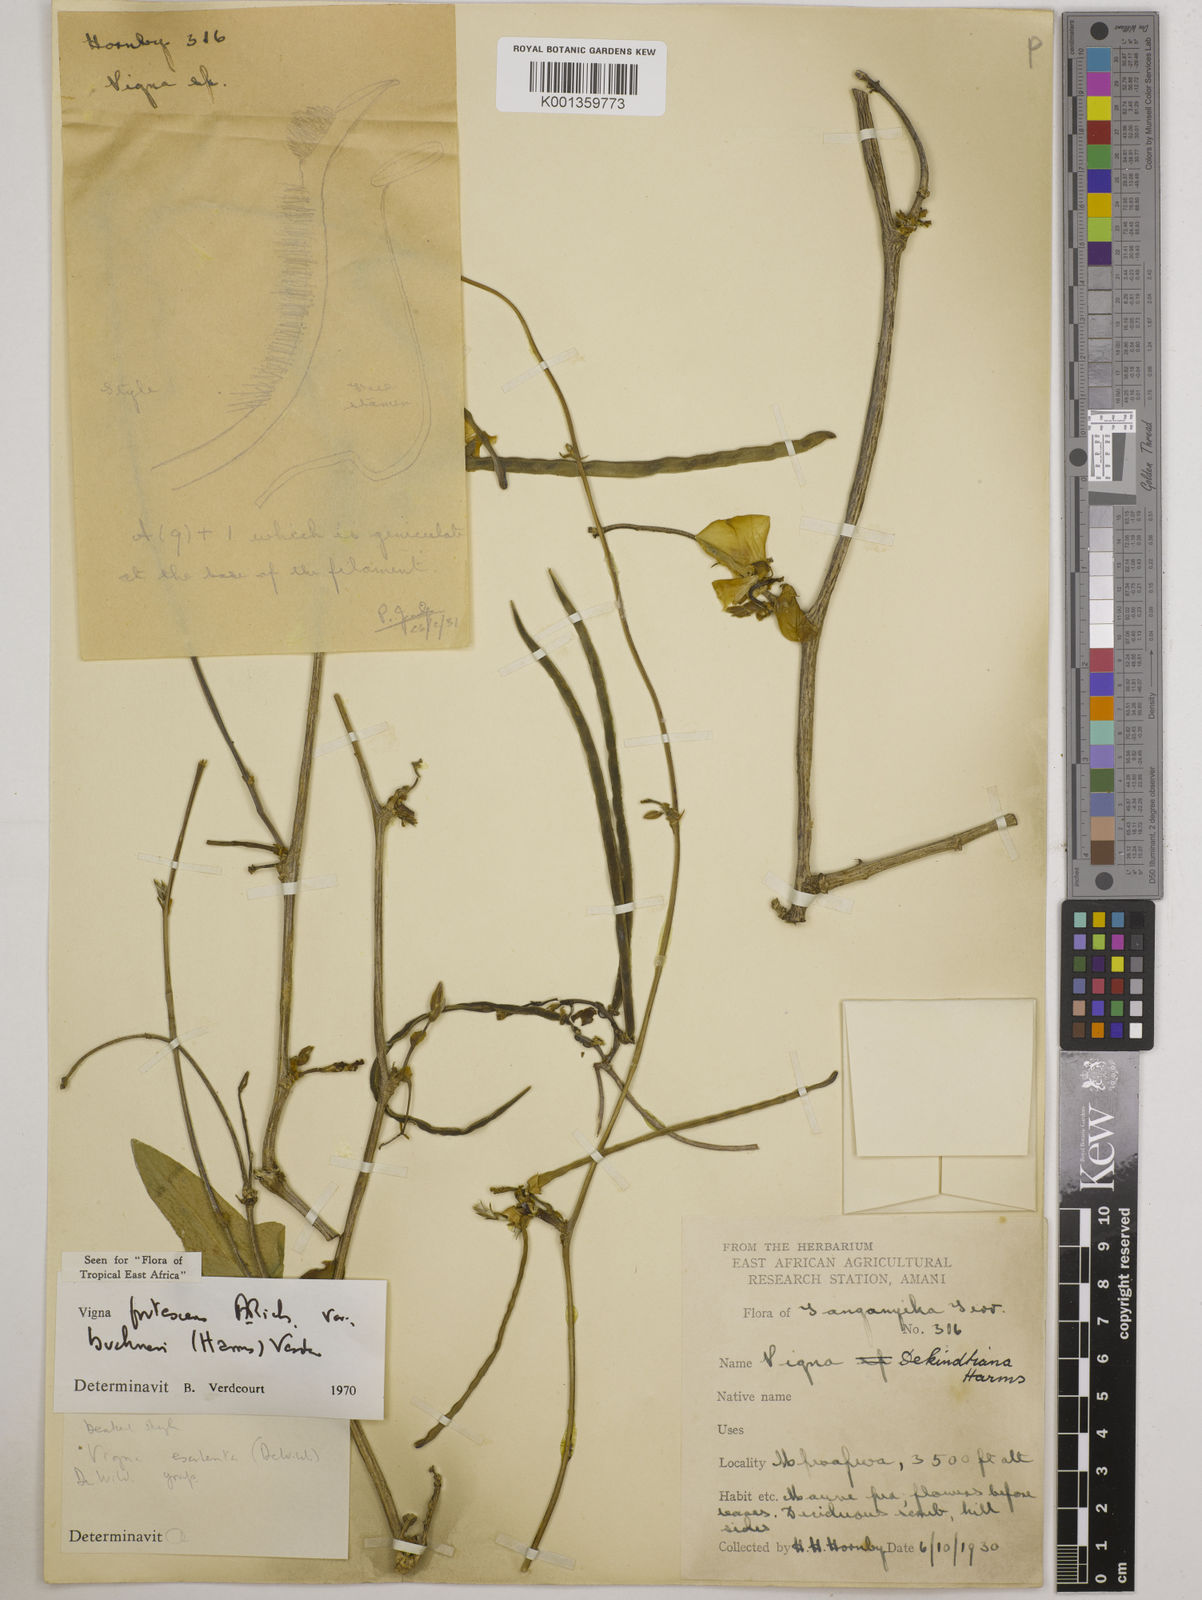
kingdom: Plantae
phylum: Tracheophyta
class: Magnoliopsida
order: Fabales
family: Fabaceae
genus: Vigna
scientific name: Vigna
